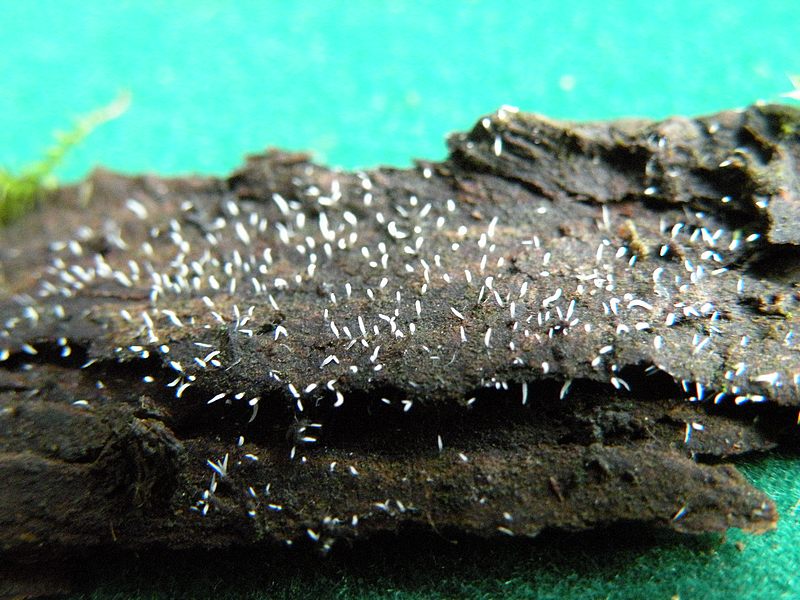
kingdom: Fungi
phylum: Basidiomycota
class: Agaricomycetes
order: Hymenochaetales
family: Rickenellaceae
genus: Bryopistillaria
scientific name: Bryopistillaria sagittiformis
